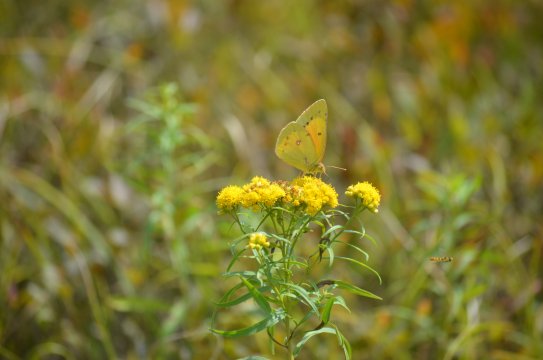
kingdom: Animalia
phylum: Arthropoda
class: Insecta
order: Lepidoptera
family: Pieridae
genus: Colias
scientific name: Colias eurytheme
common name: Orange Sulphur
